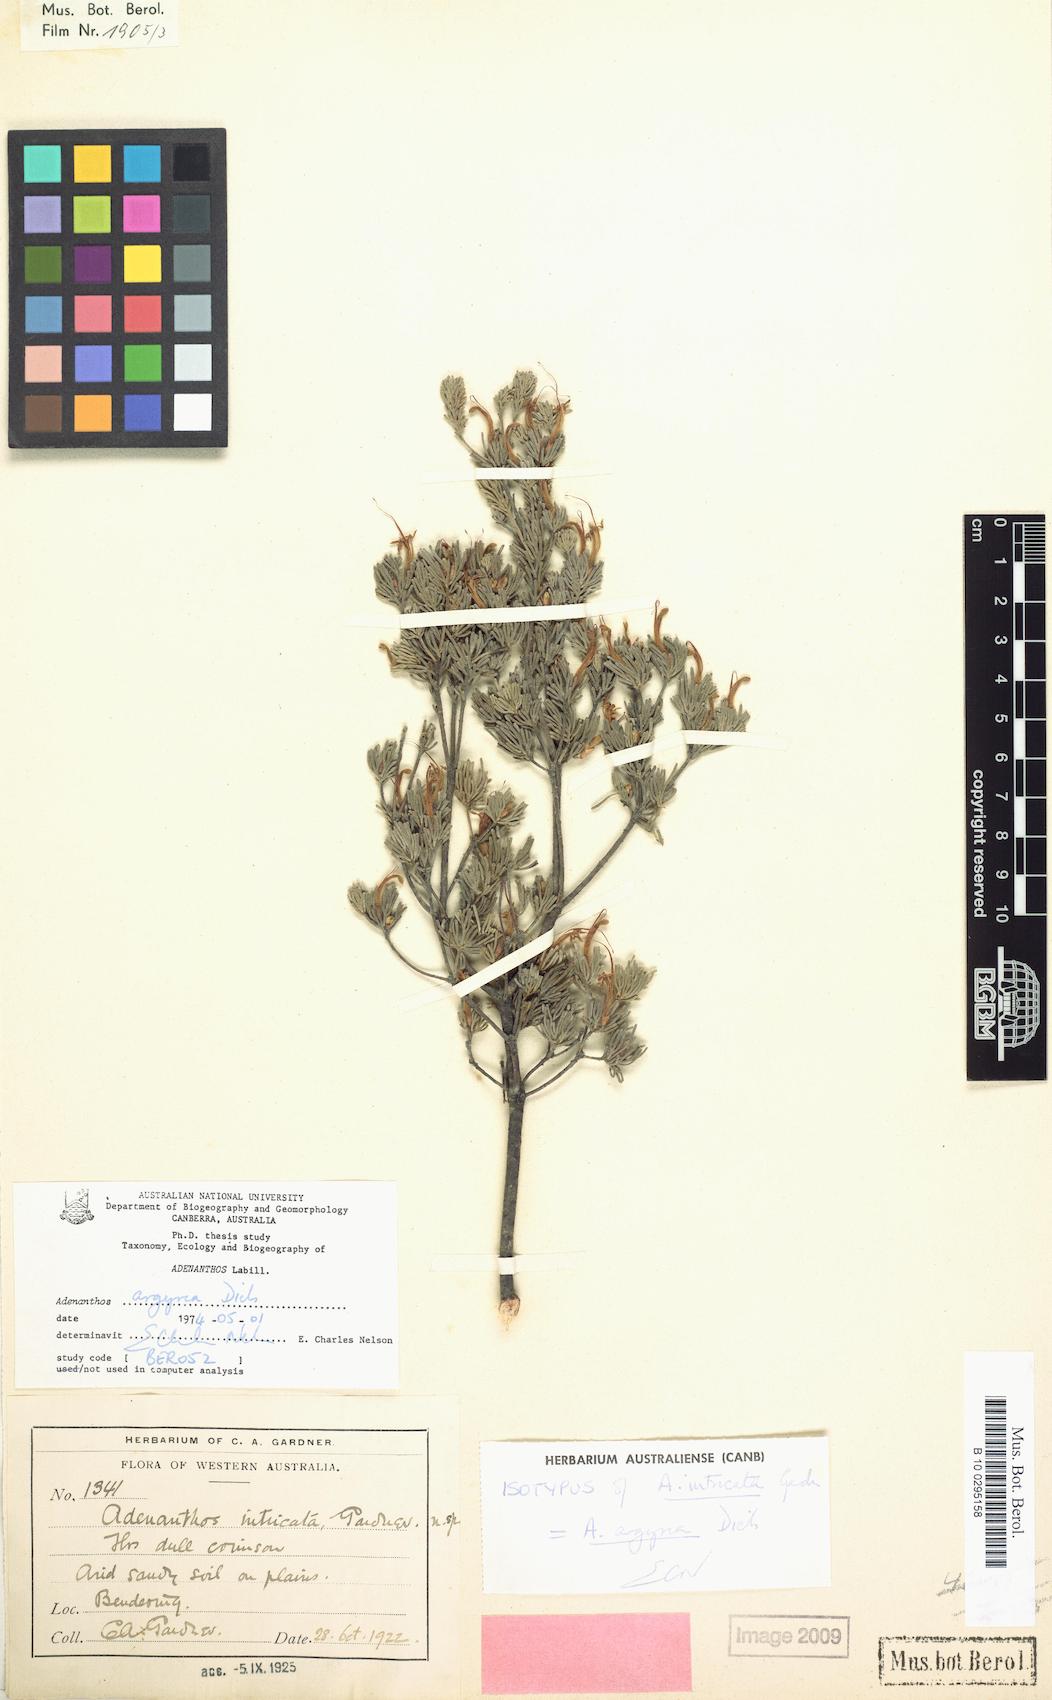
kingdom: Plantae
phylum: Tracheophyta
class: Magnoliopsida
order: Proteales
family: Proteaceae
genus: Adenanthos
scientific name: Adenanthos argyreus
